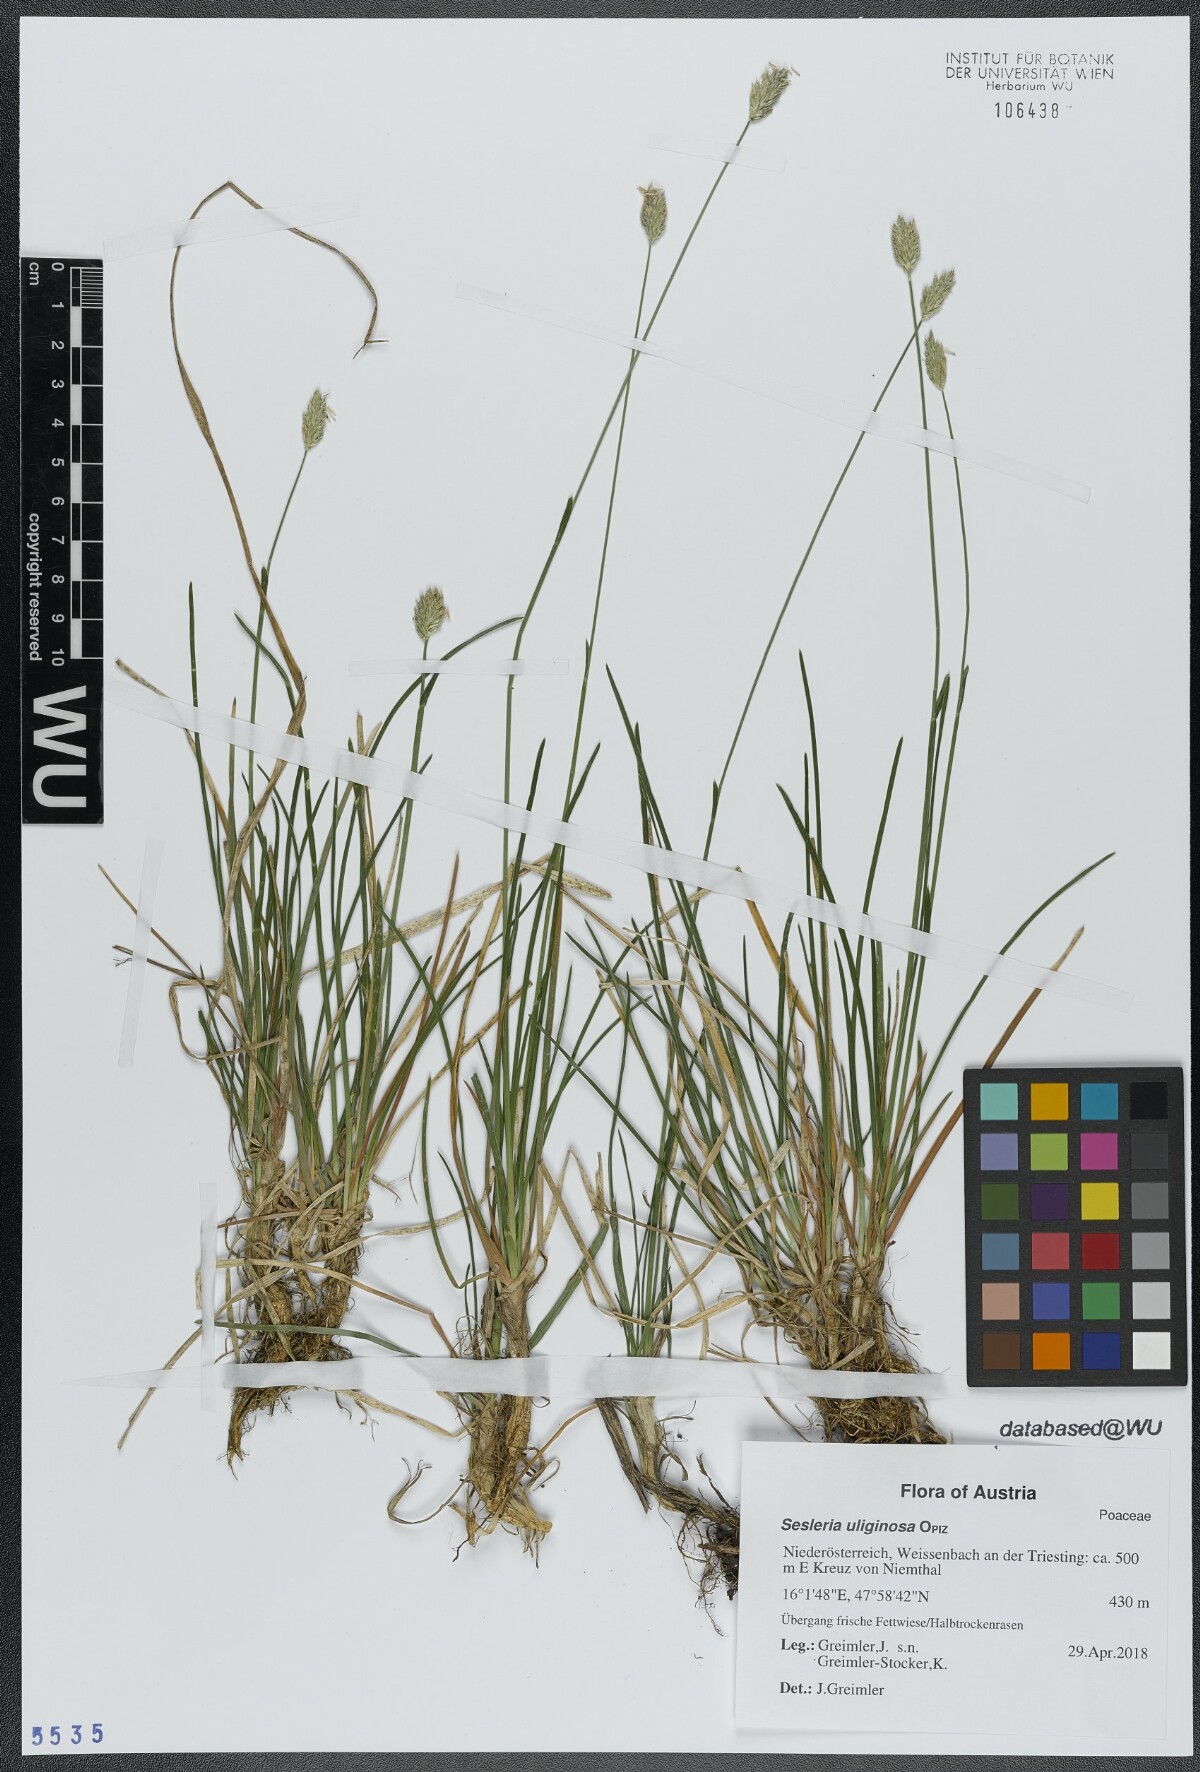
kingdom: Plantae
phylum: Tracheophyta
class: Liliopsida
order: Poales
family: Poaceae
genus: Sesleria
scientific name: Sesleria uliginosa
